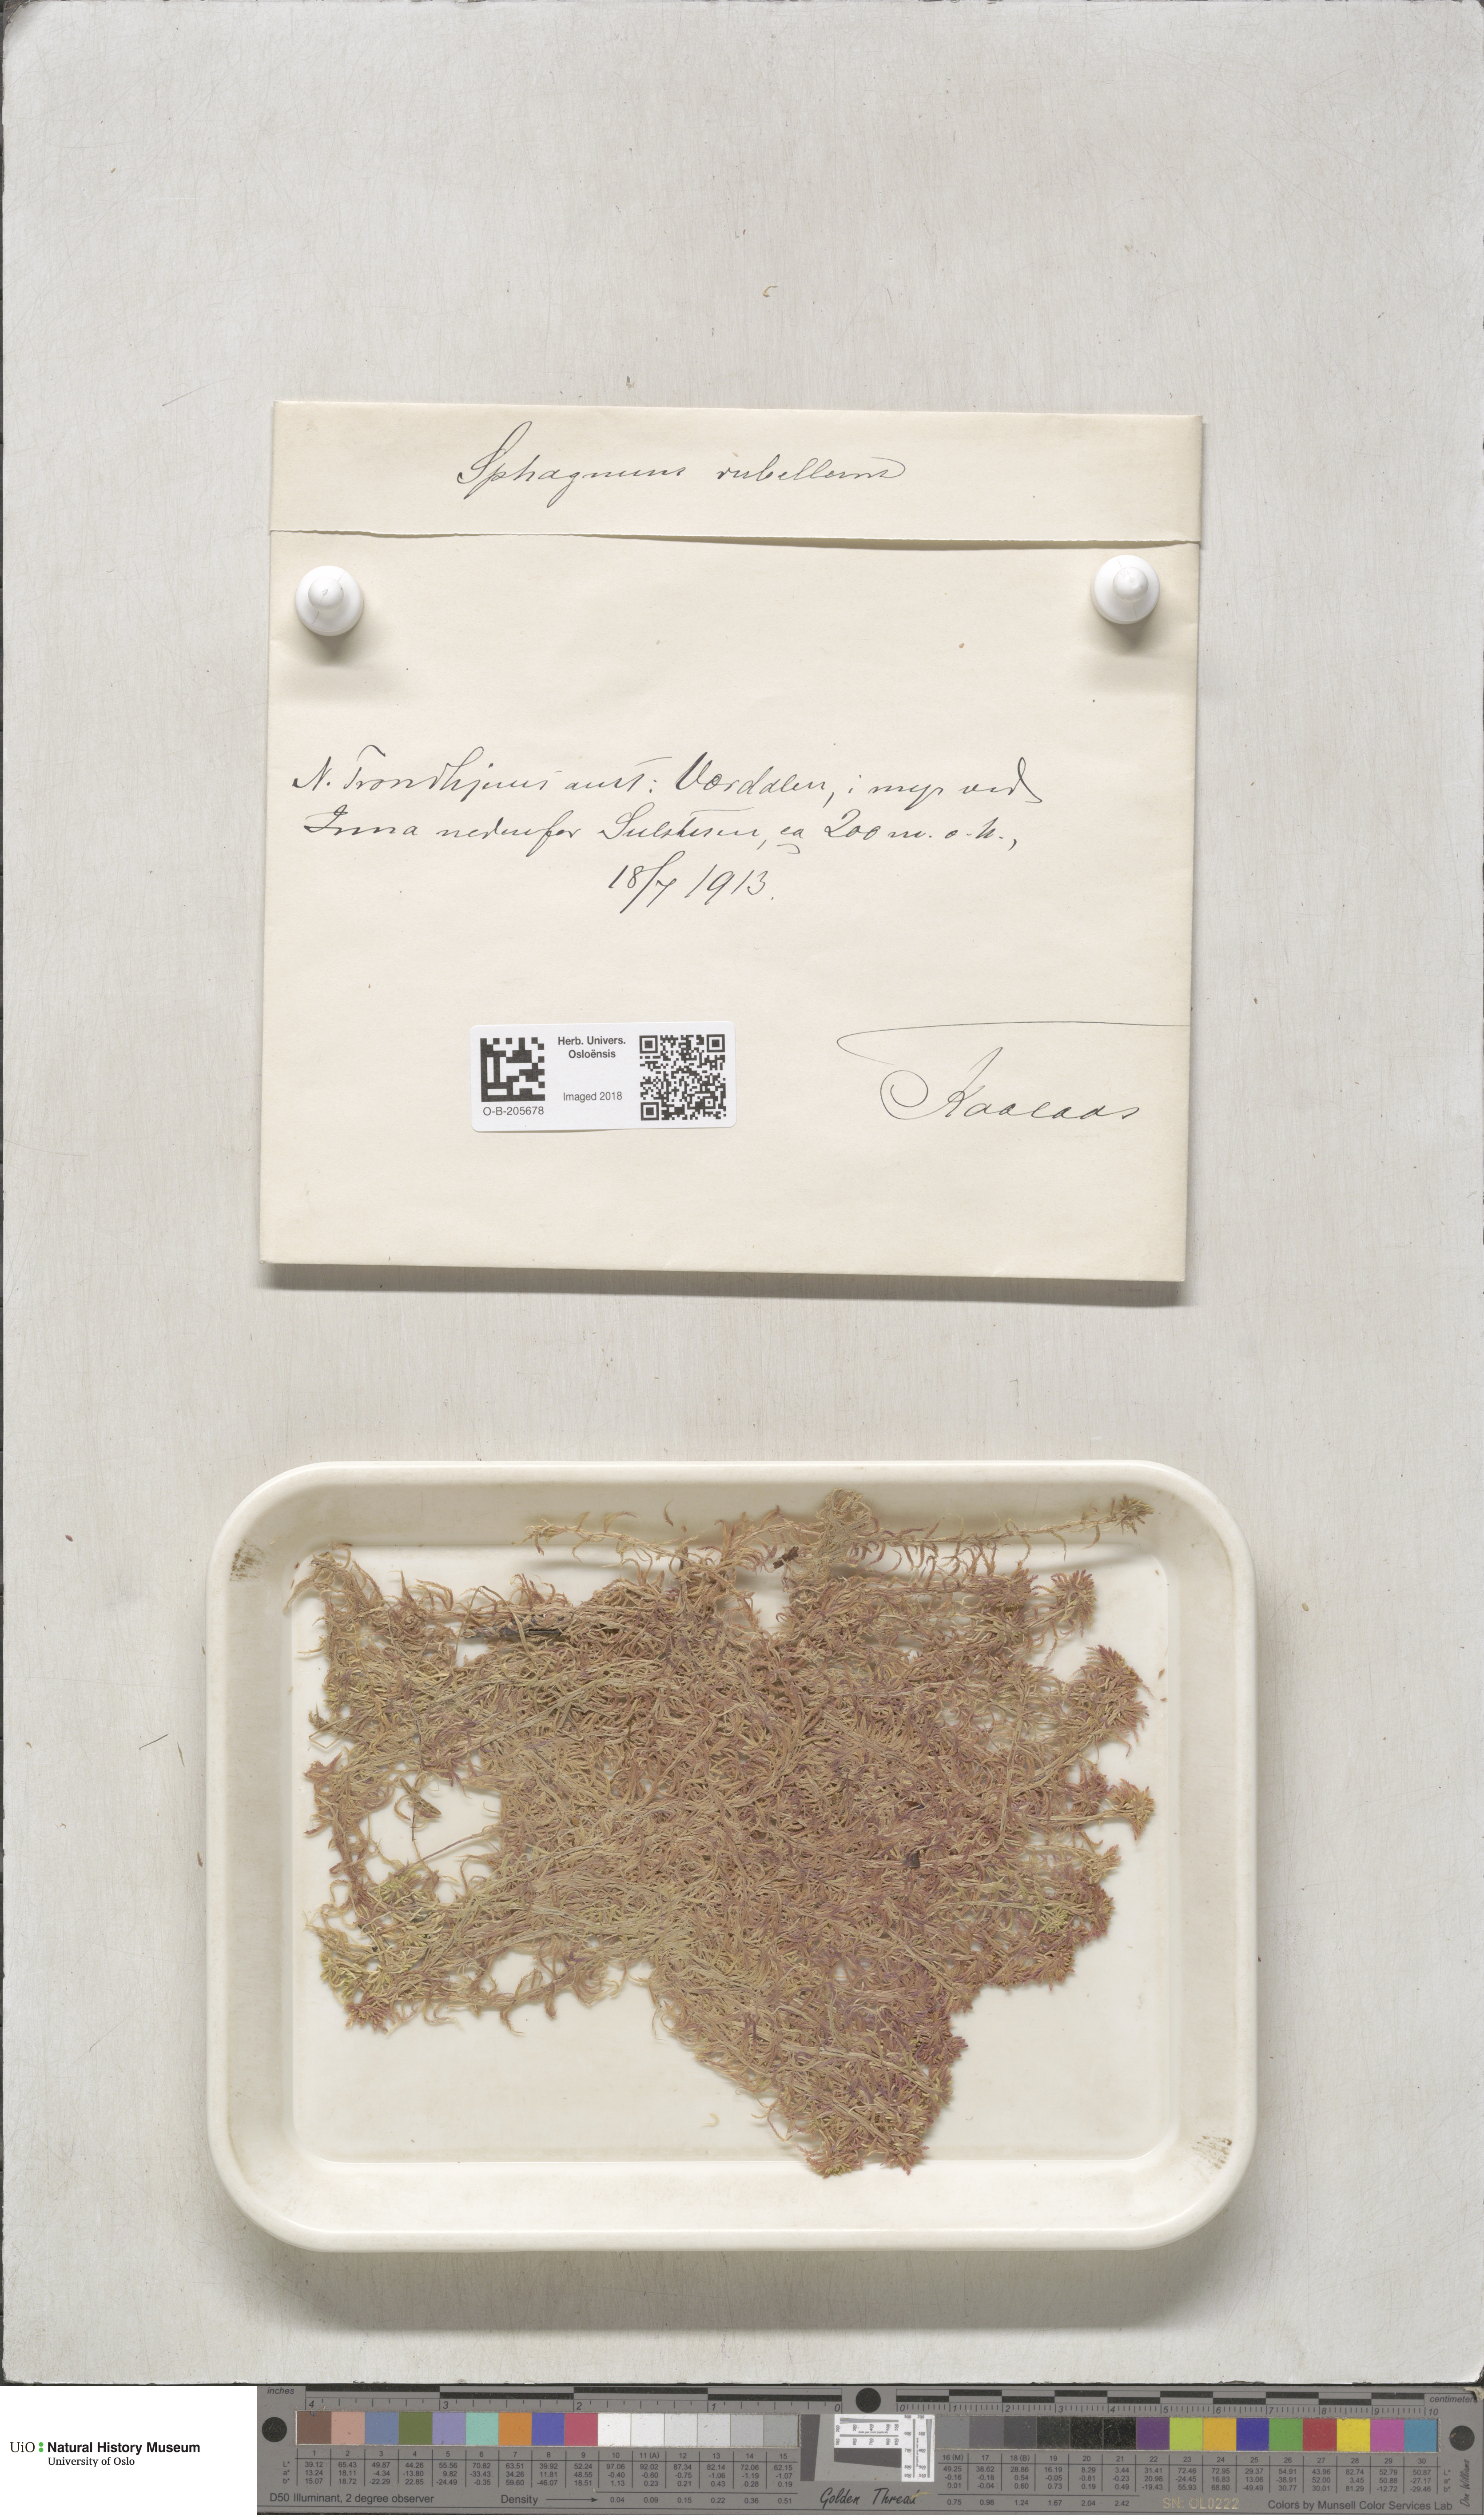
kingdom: Plantae
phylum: Bryophyta
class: Sphagnopsida
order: Sphagnales
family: Sphagnaceae
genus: Sphagnum
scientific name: Sphagnum rubellum
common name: Red peat moss
